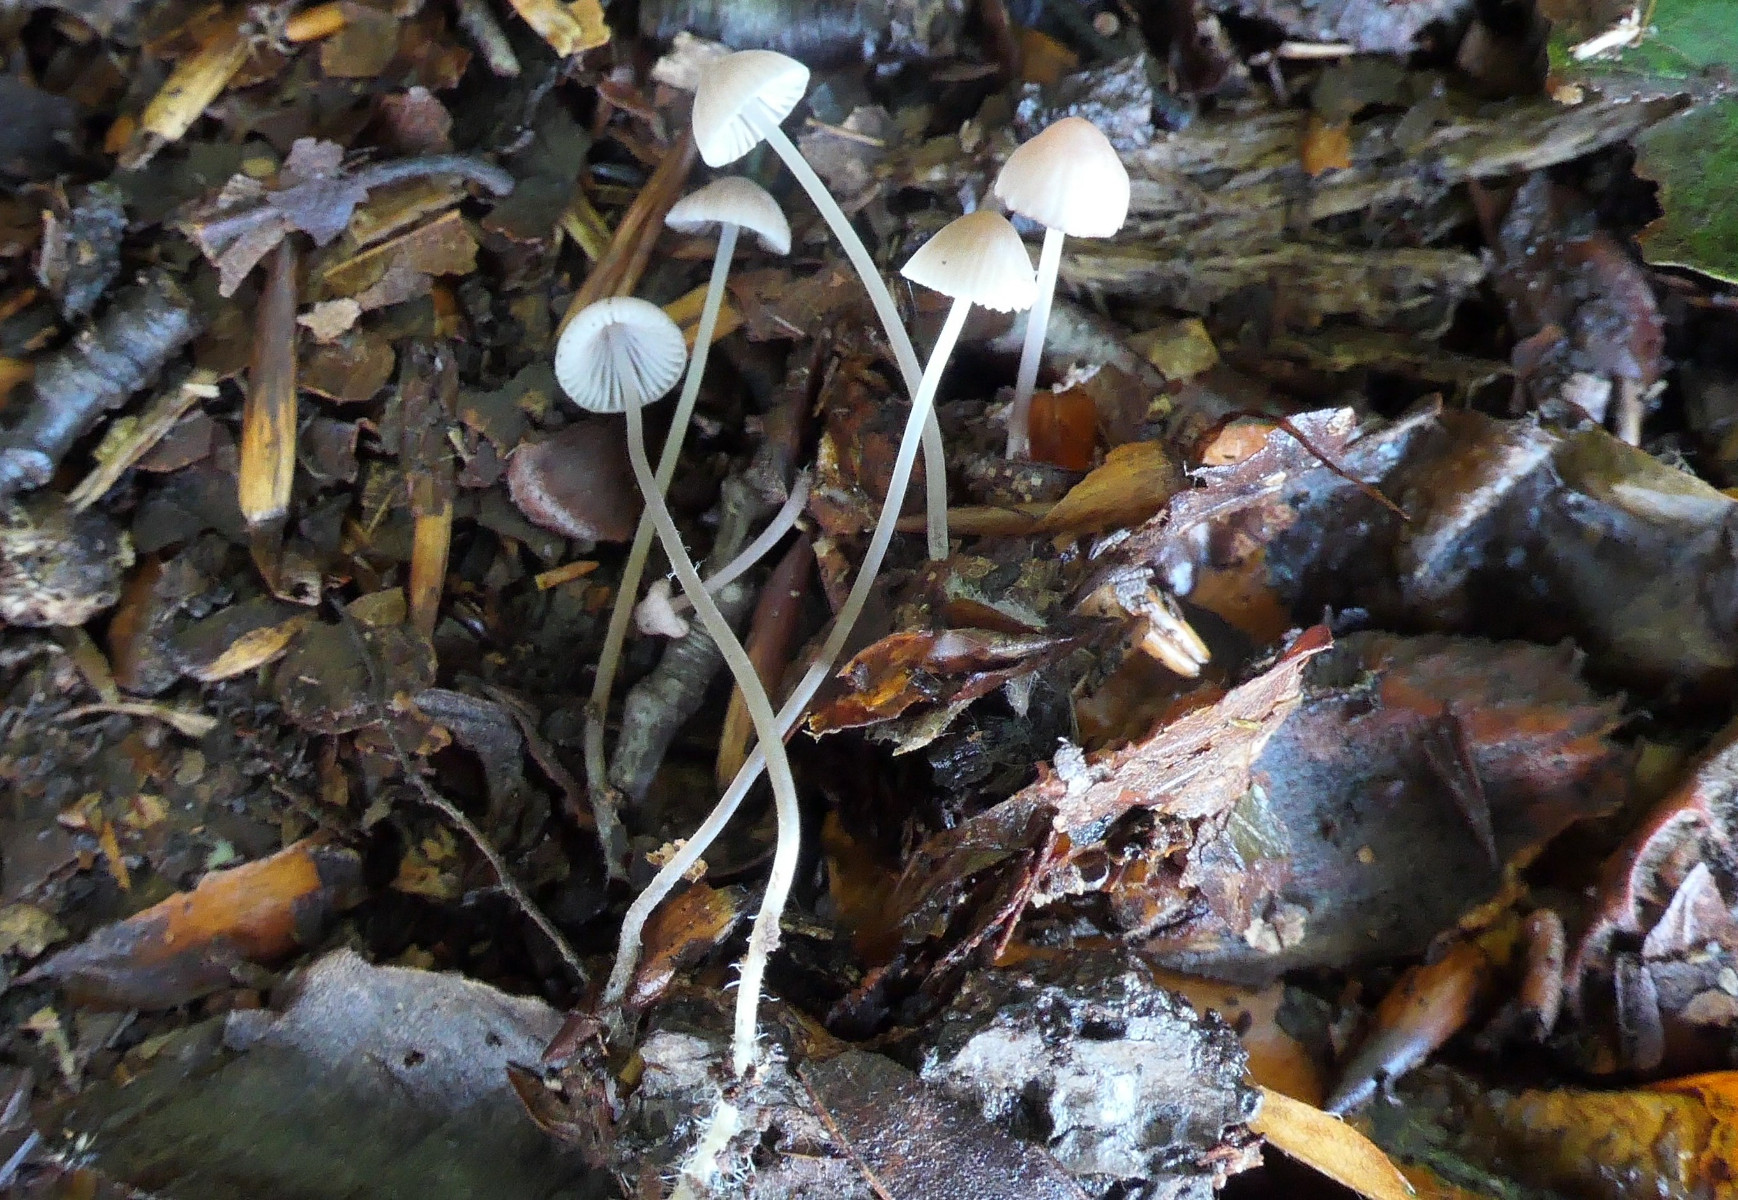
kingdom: Fungi
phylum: Basidiomycota
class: Agaricomycetes
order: Agaricales
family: Mycenaceae
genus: Mycena
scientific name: Mycena galopus
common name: hvidmælket huesvamp
